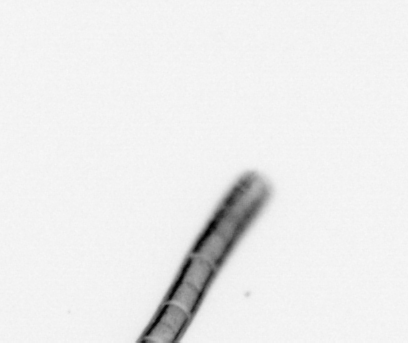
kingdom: Chromista
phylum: Ochrophyta
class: Bacillariophyceae
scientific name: Bacillariophyceae
